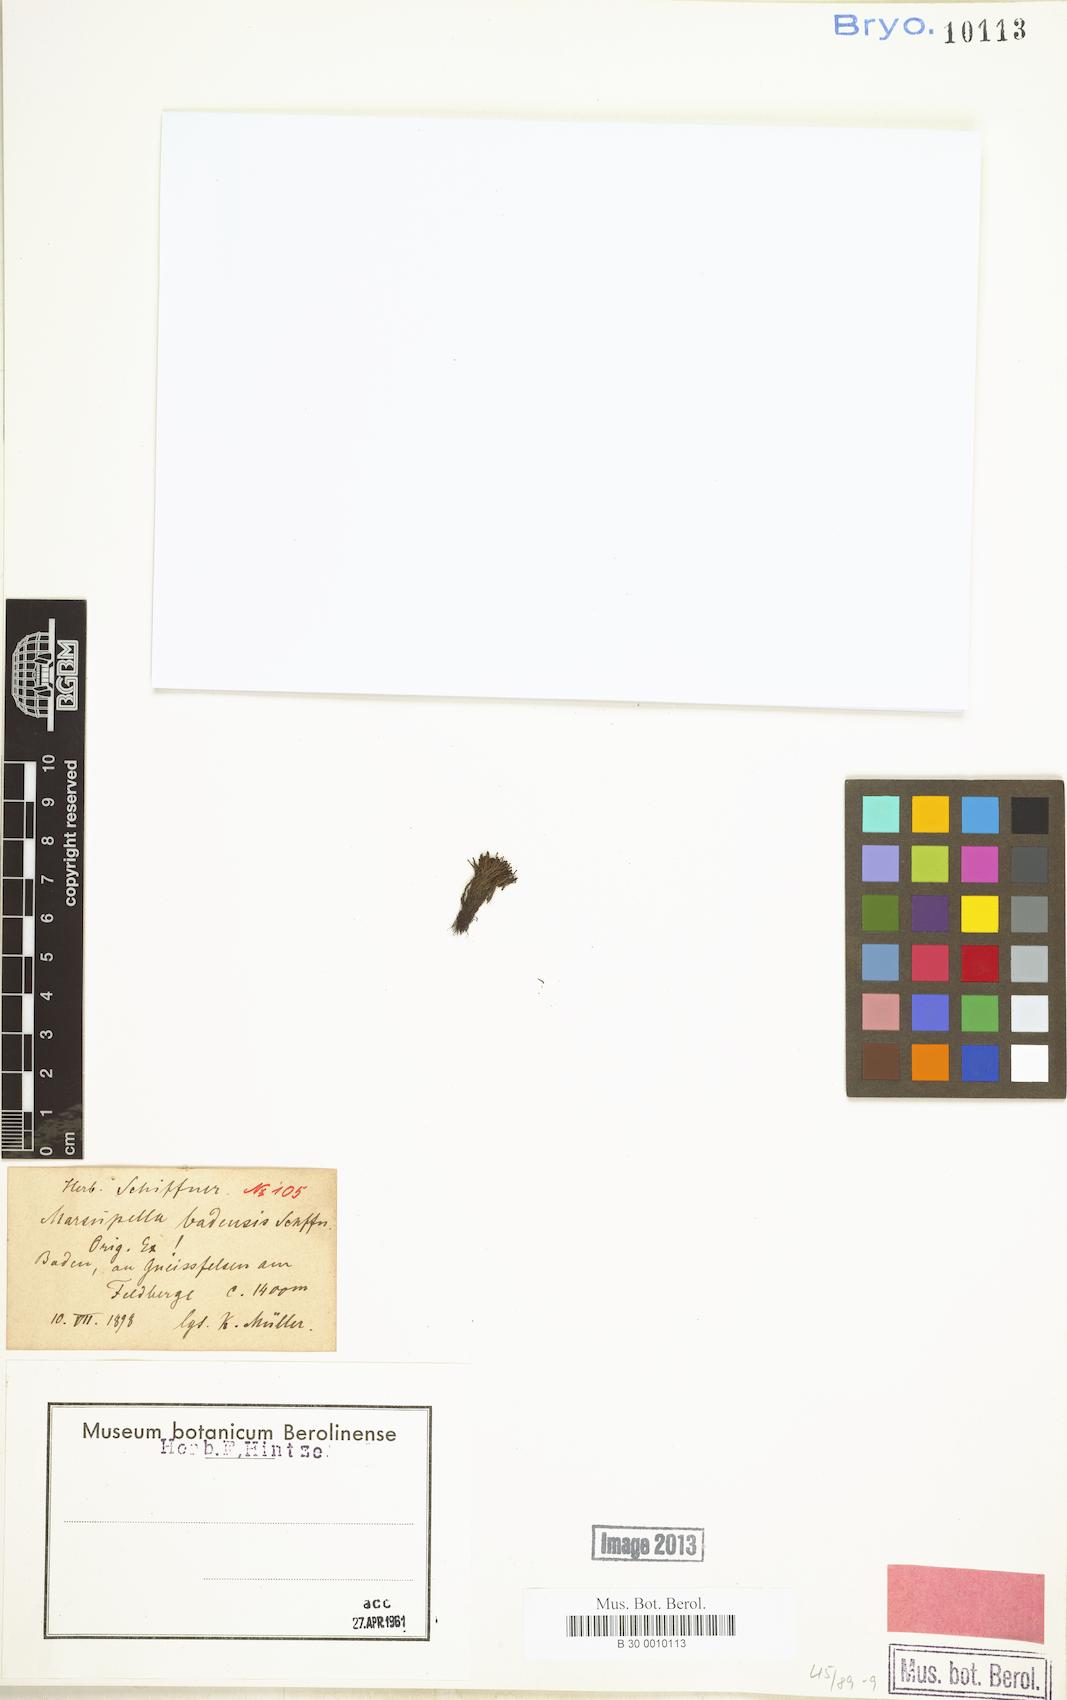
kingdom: Plantae
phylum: Marchantiophyta
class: Jungermanniopsida
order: Jungermanniales
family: Gymnomitriaceae
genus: Marsupella
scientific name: Marsupella funckii
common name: Funck's rustwort
